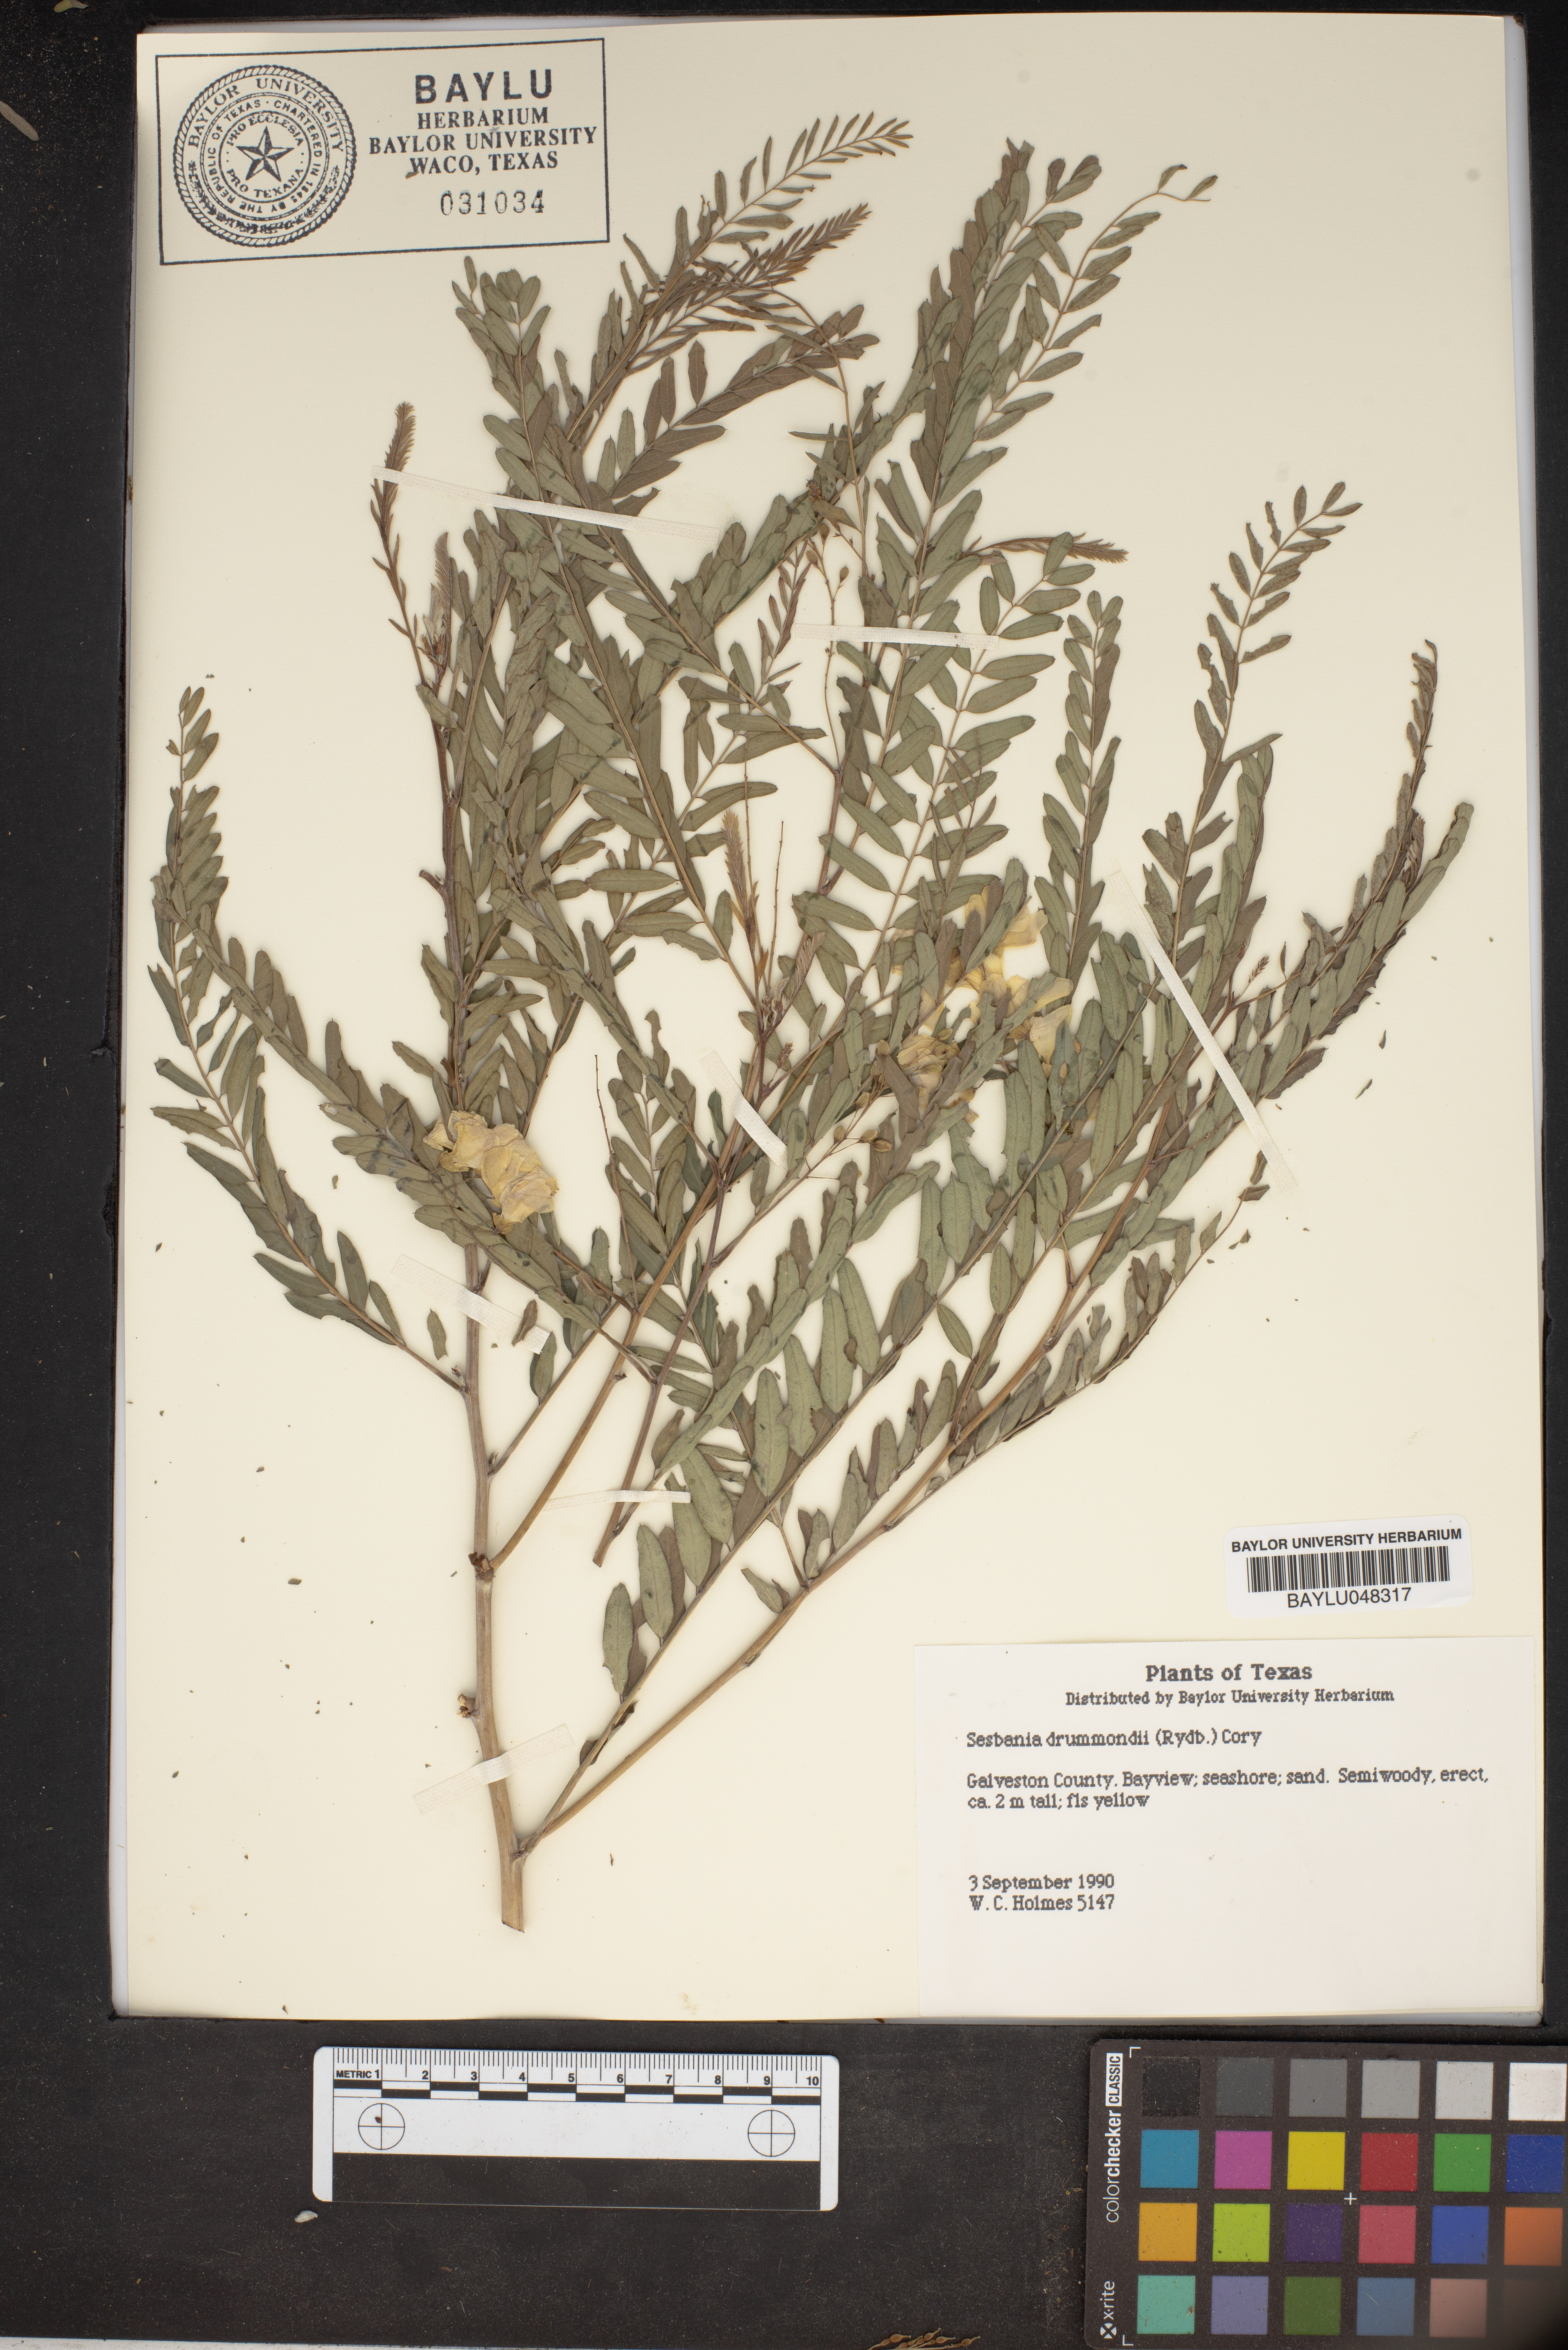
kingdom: Plantae
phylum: Tracheophyta
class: Magnoliopsida
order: Fabales
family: Fabaceae
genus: Sesbania
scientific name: Sesbania drummondii
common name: Poison-bean
